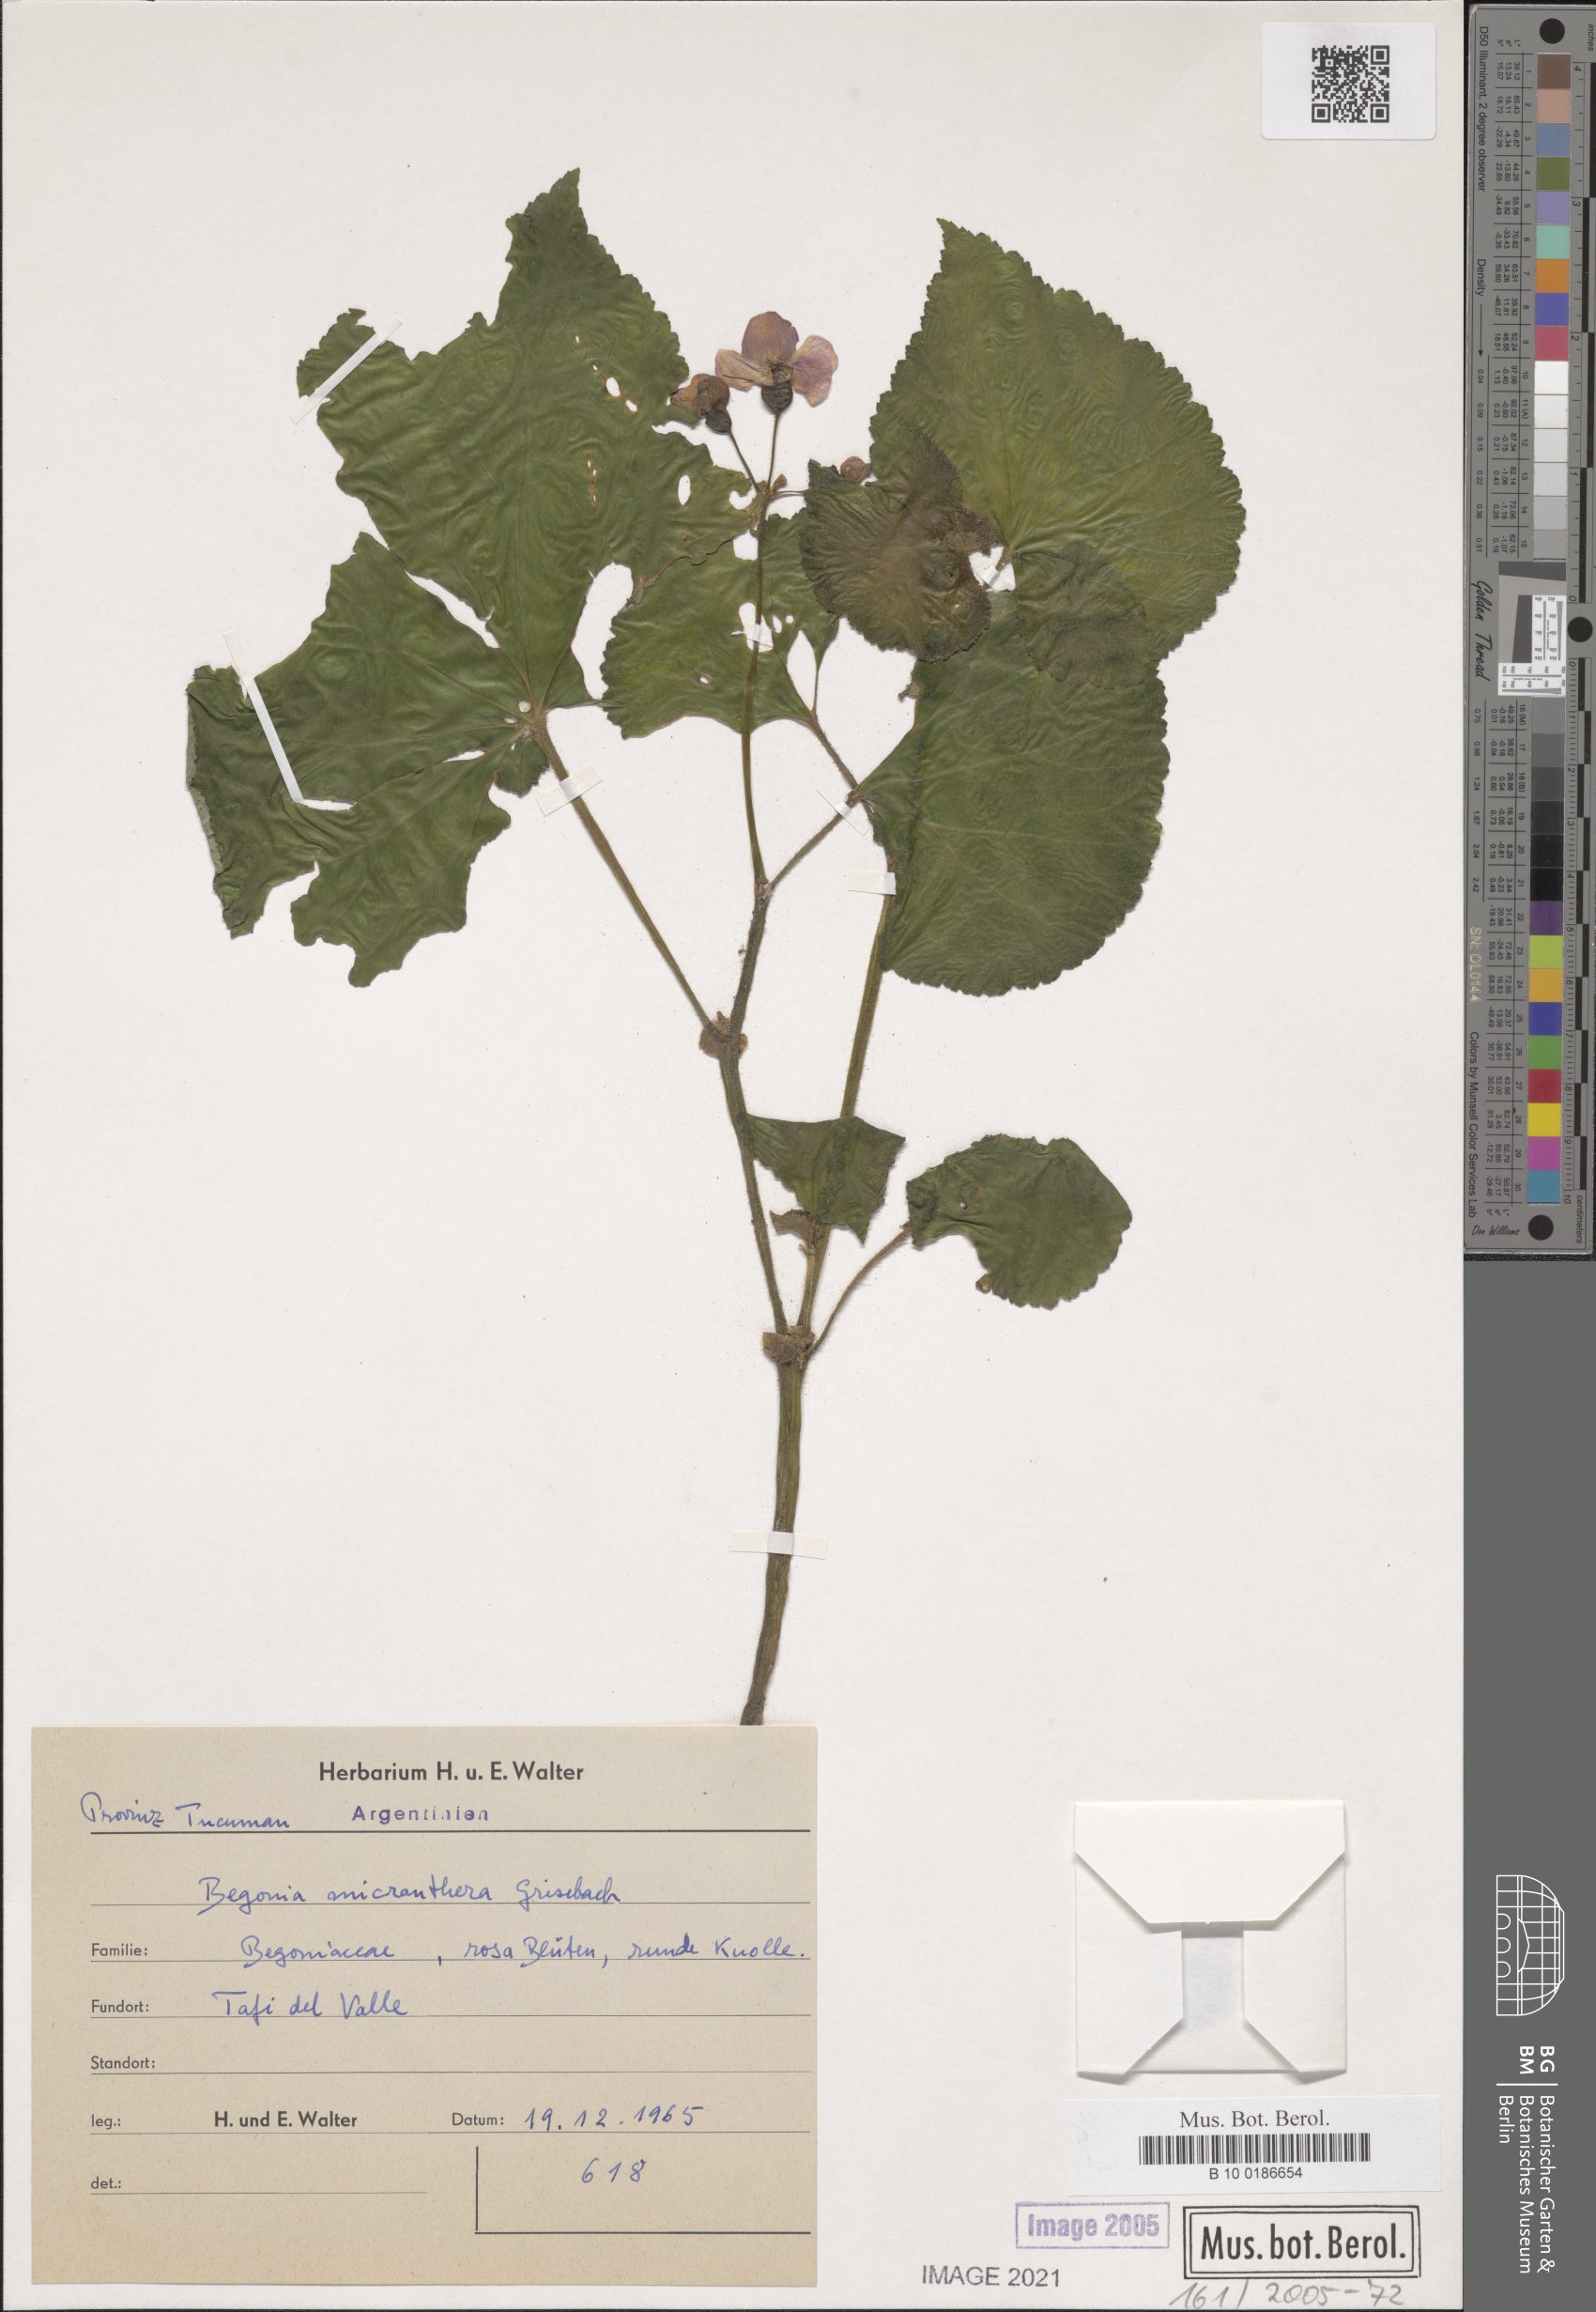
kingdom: Plantae
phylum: Tracheophyta
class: Magnoliopsida
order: Cucurbitales
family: Begoniaceae
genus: Begonia
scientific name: Begonia micranthera
